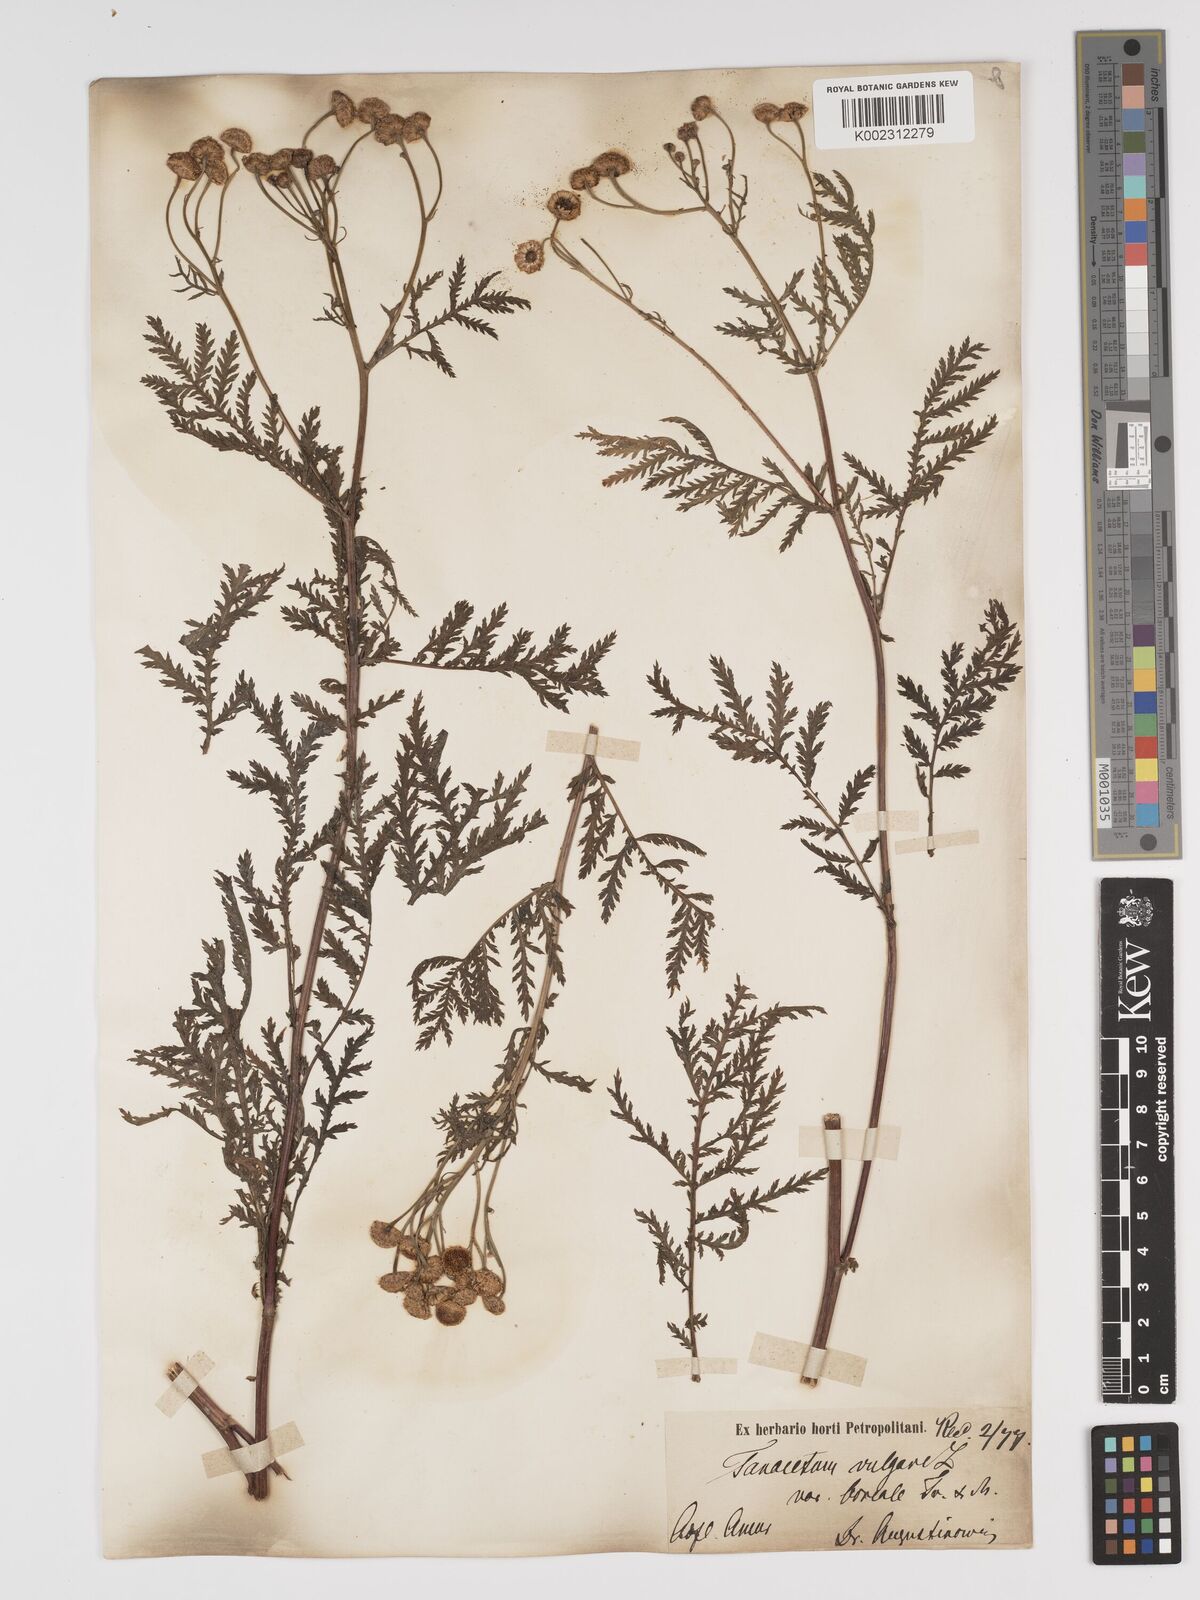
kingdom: Plantae
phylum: Tracheophyta
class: Magnoliopsida
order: Asterales
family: Asteraceae
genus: Tanacetum
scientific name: Tanacetum vulgare
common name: Common tansy
